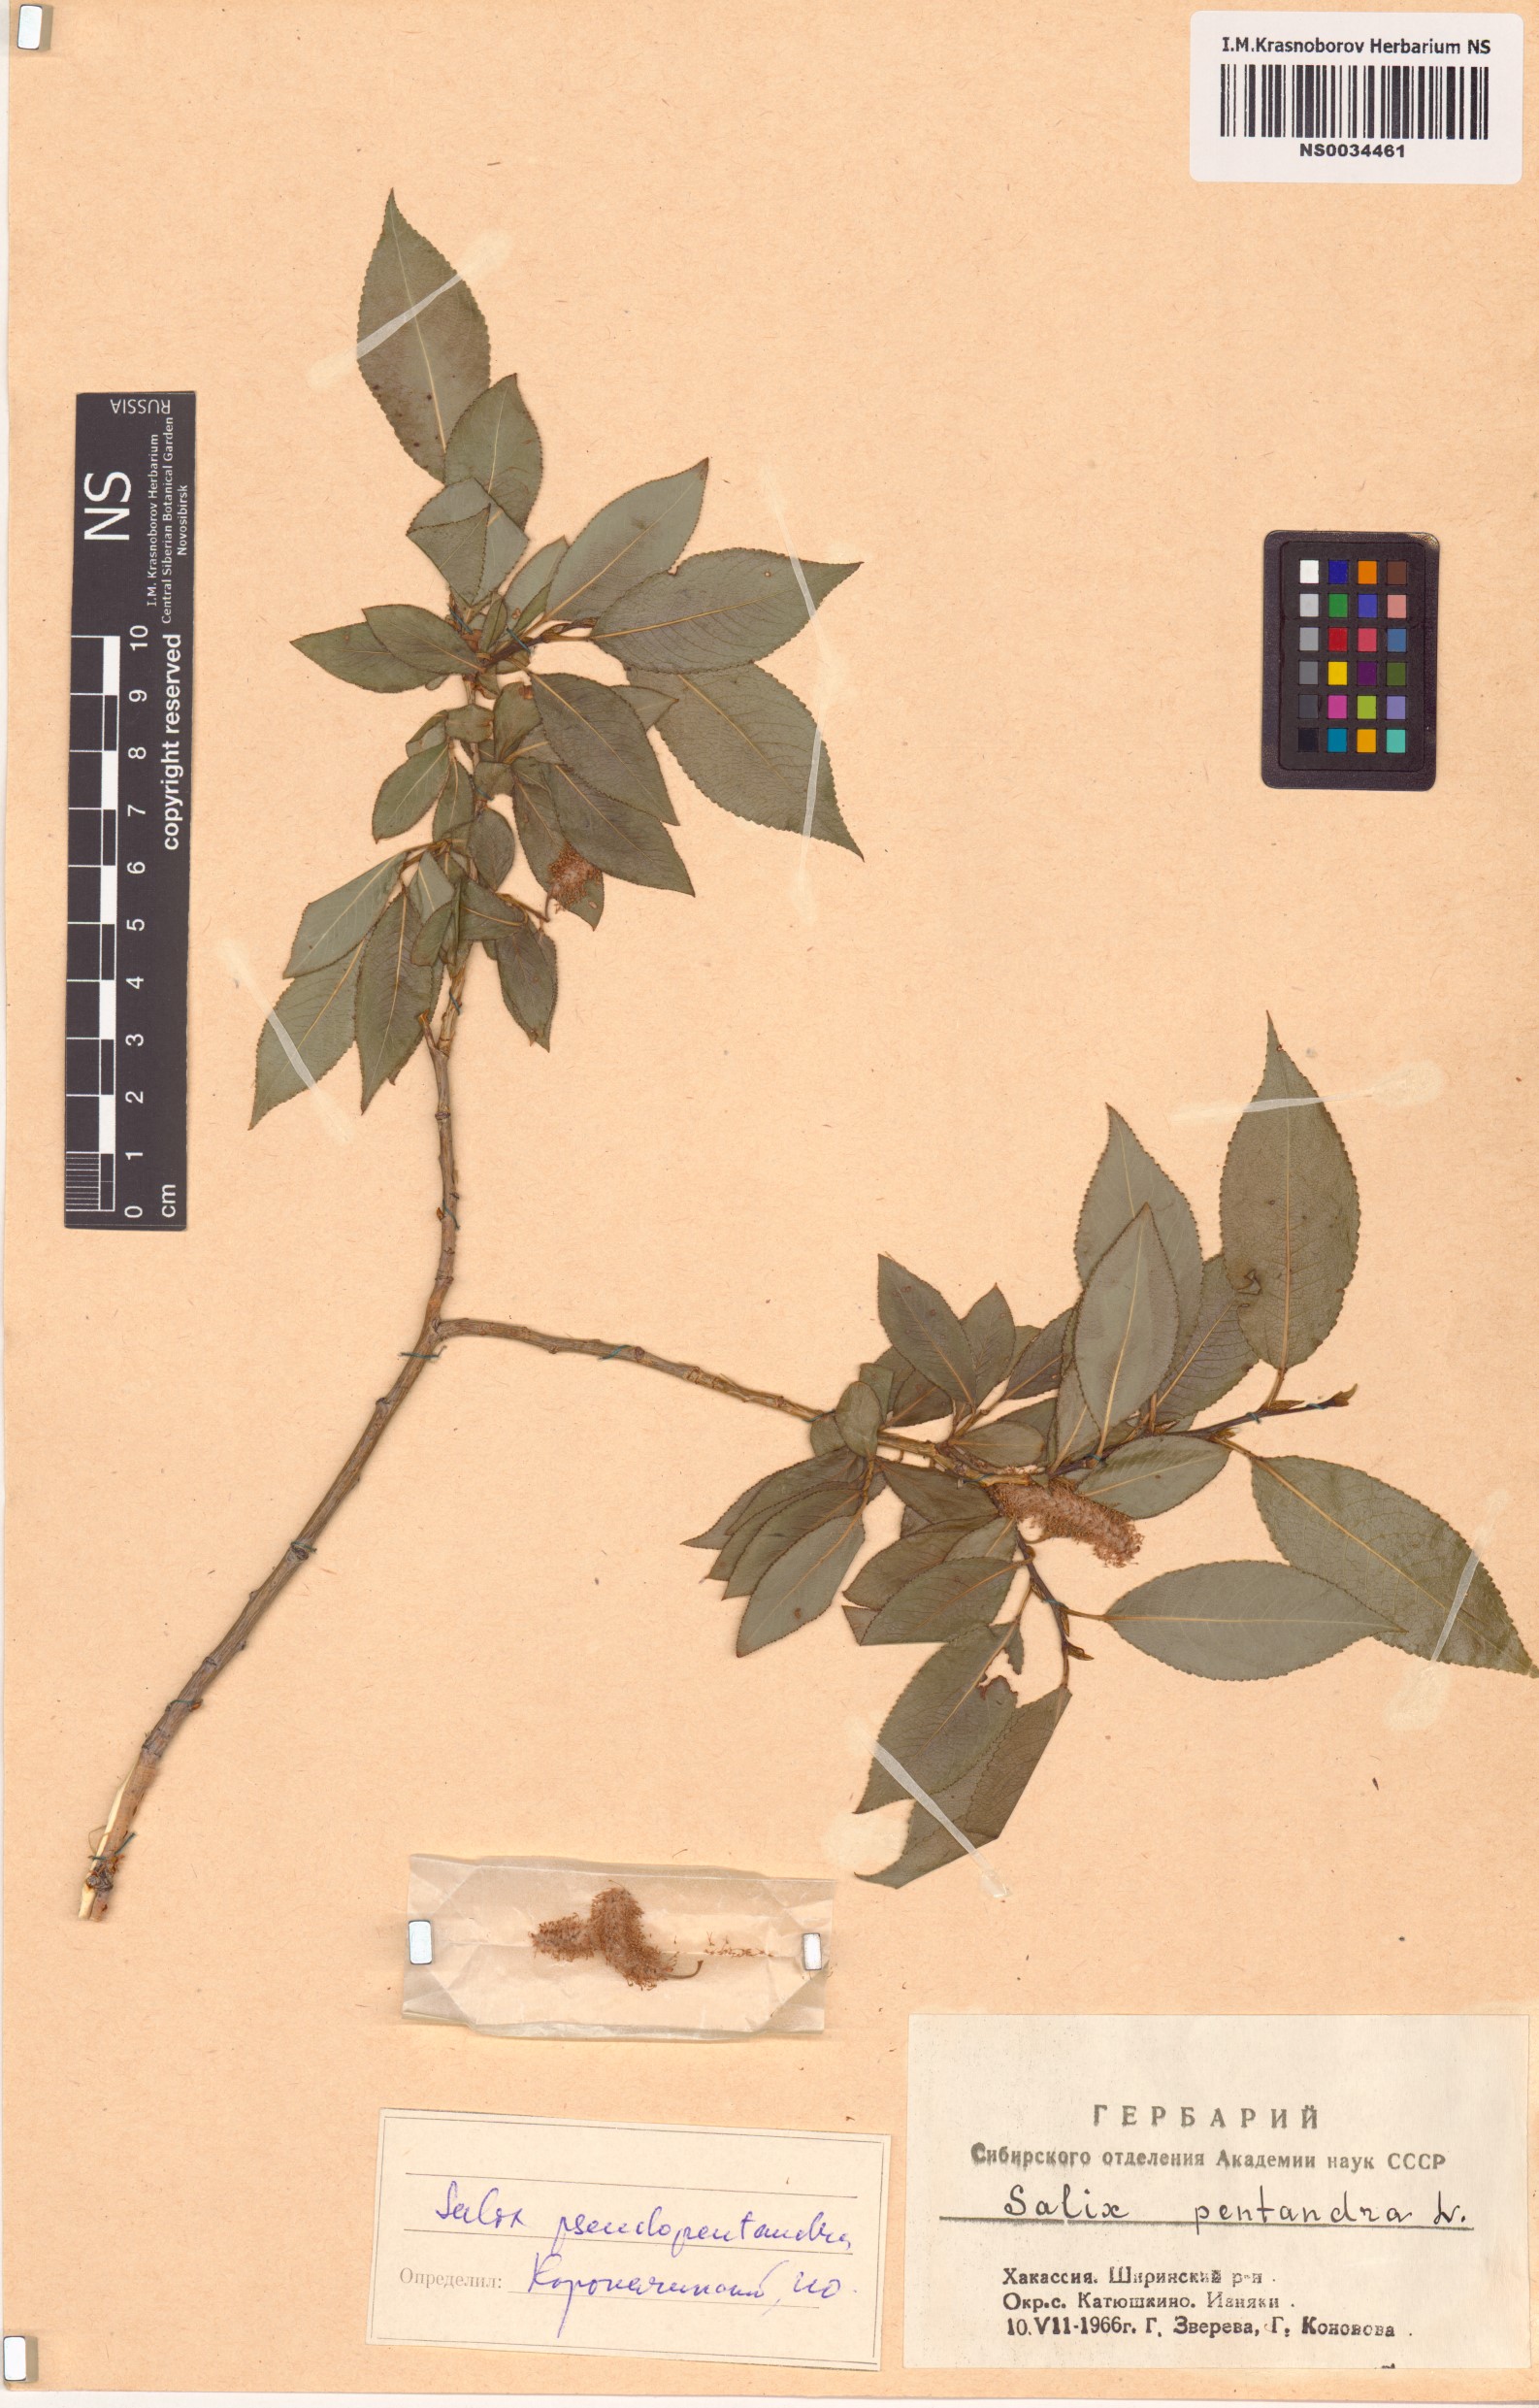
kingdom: Plantae
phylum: Tracheophyta
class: Magnoliopsida
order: Malpighiales
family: Salicaceae
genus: Salix
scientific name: Salix pseudopentandra
